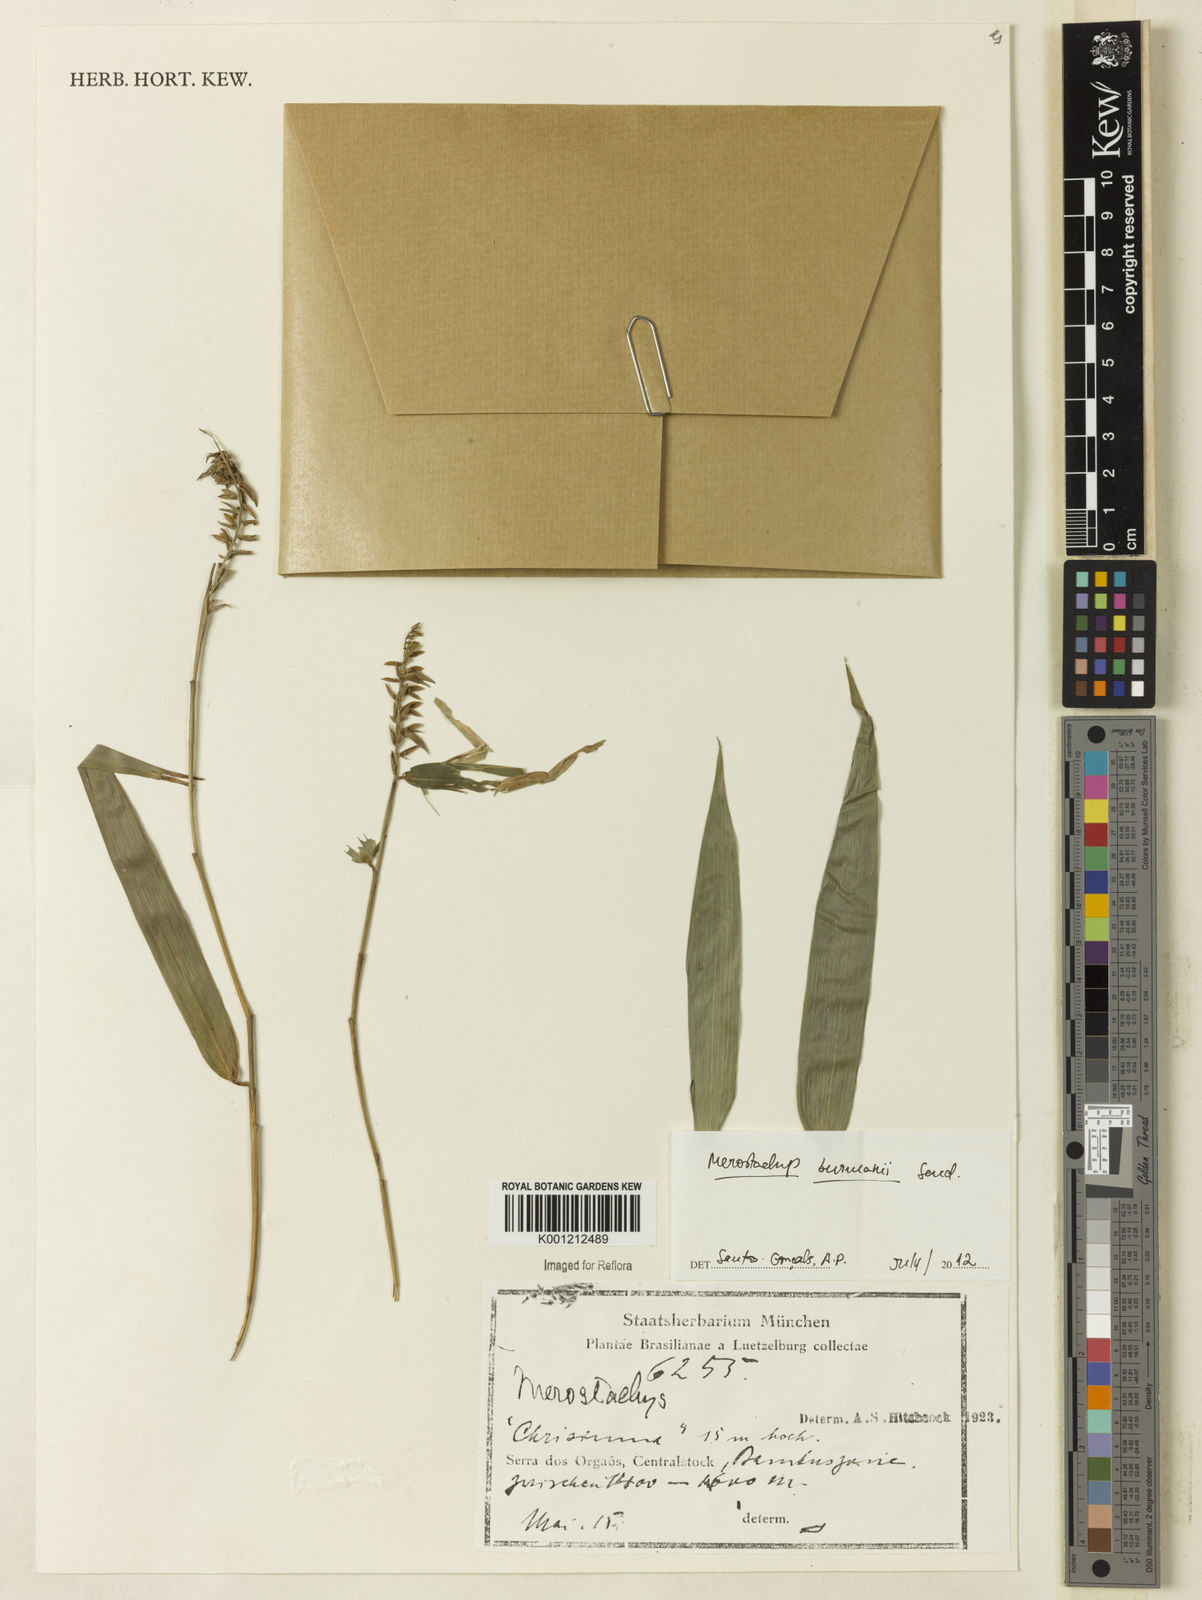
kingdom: Plantae
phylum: Tracheophyta
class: Liliopsida
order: Poales
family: Poaceae
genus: Merostachys
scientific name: Merostachys burmanii
